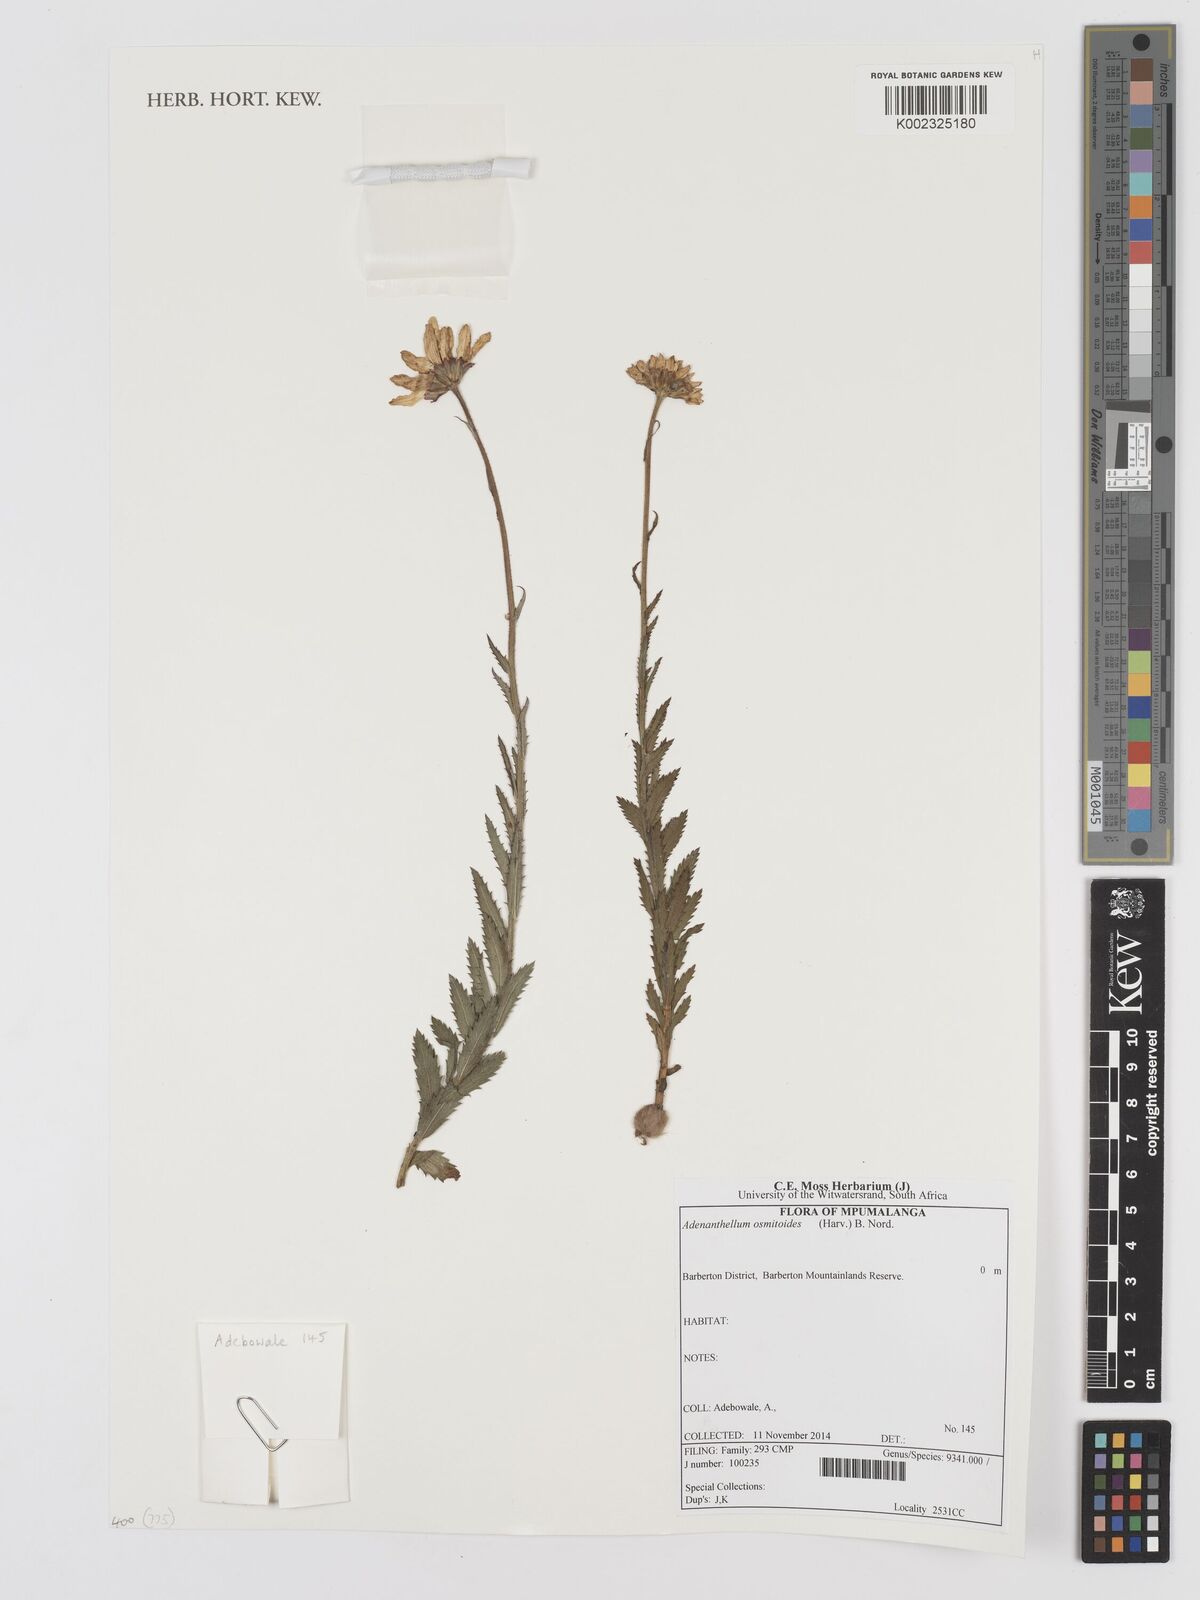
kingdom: Plantae
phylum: Tracheophyta
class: Magnoliopsida
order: Asterales
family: Asteraceae
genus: Adenanthellum
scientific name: Adenanthellum osmitoides
